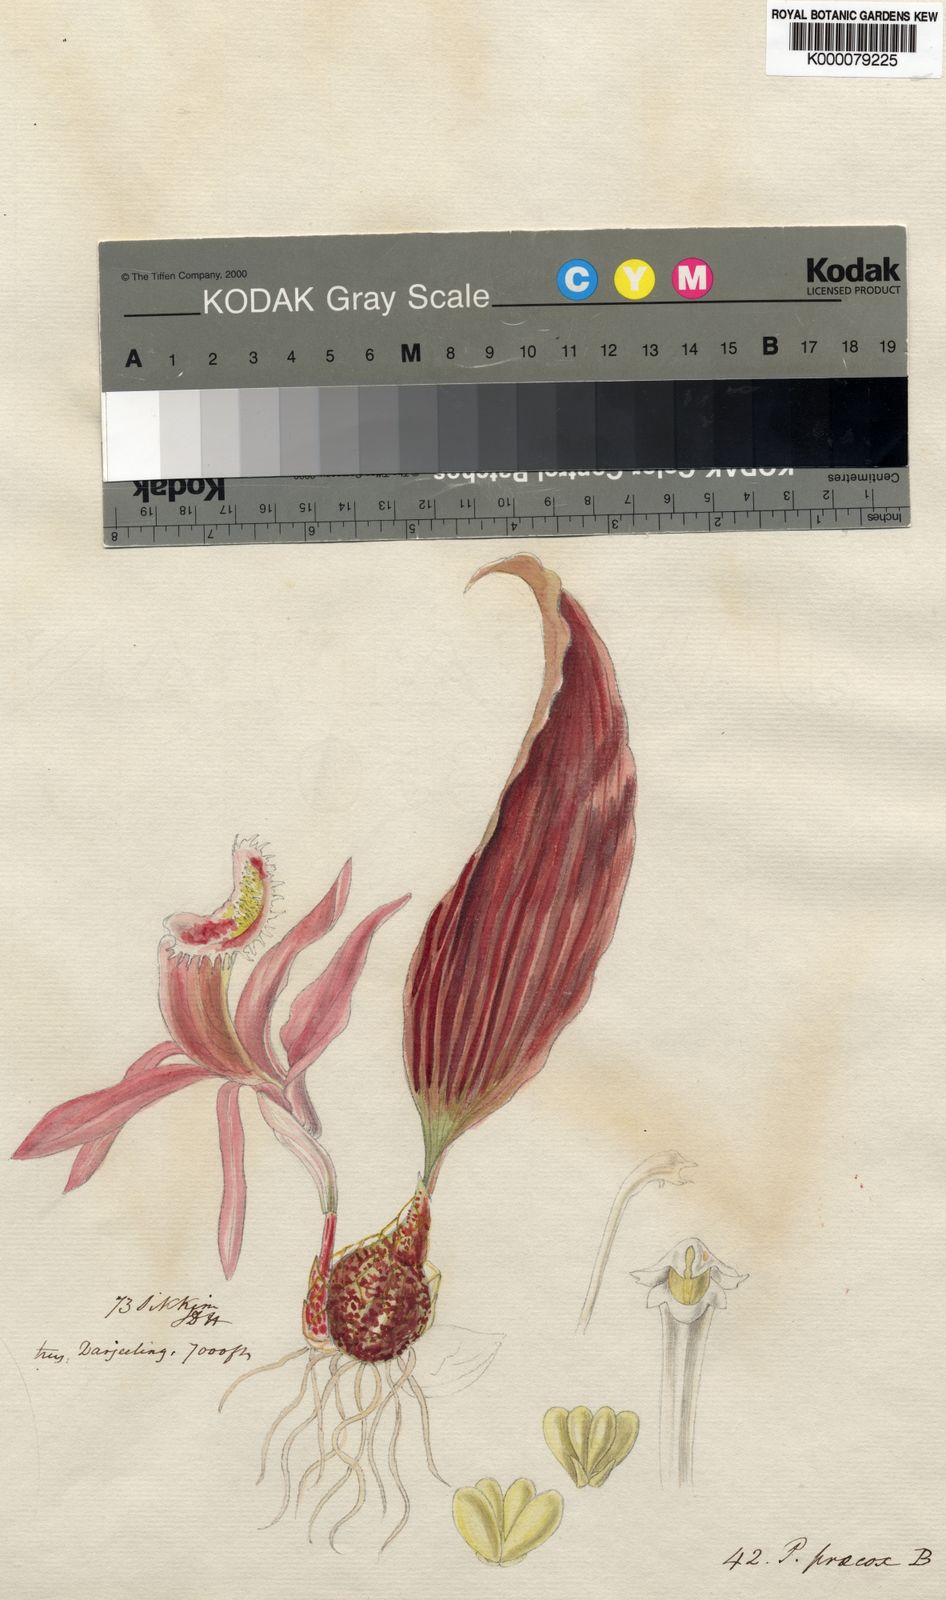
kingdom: Plantae
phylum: Tracheophyta
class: Liliopsida
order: Asparagales
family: Orchidaceae
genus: Pleione
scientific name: Pleione praecox
